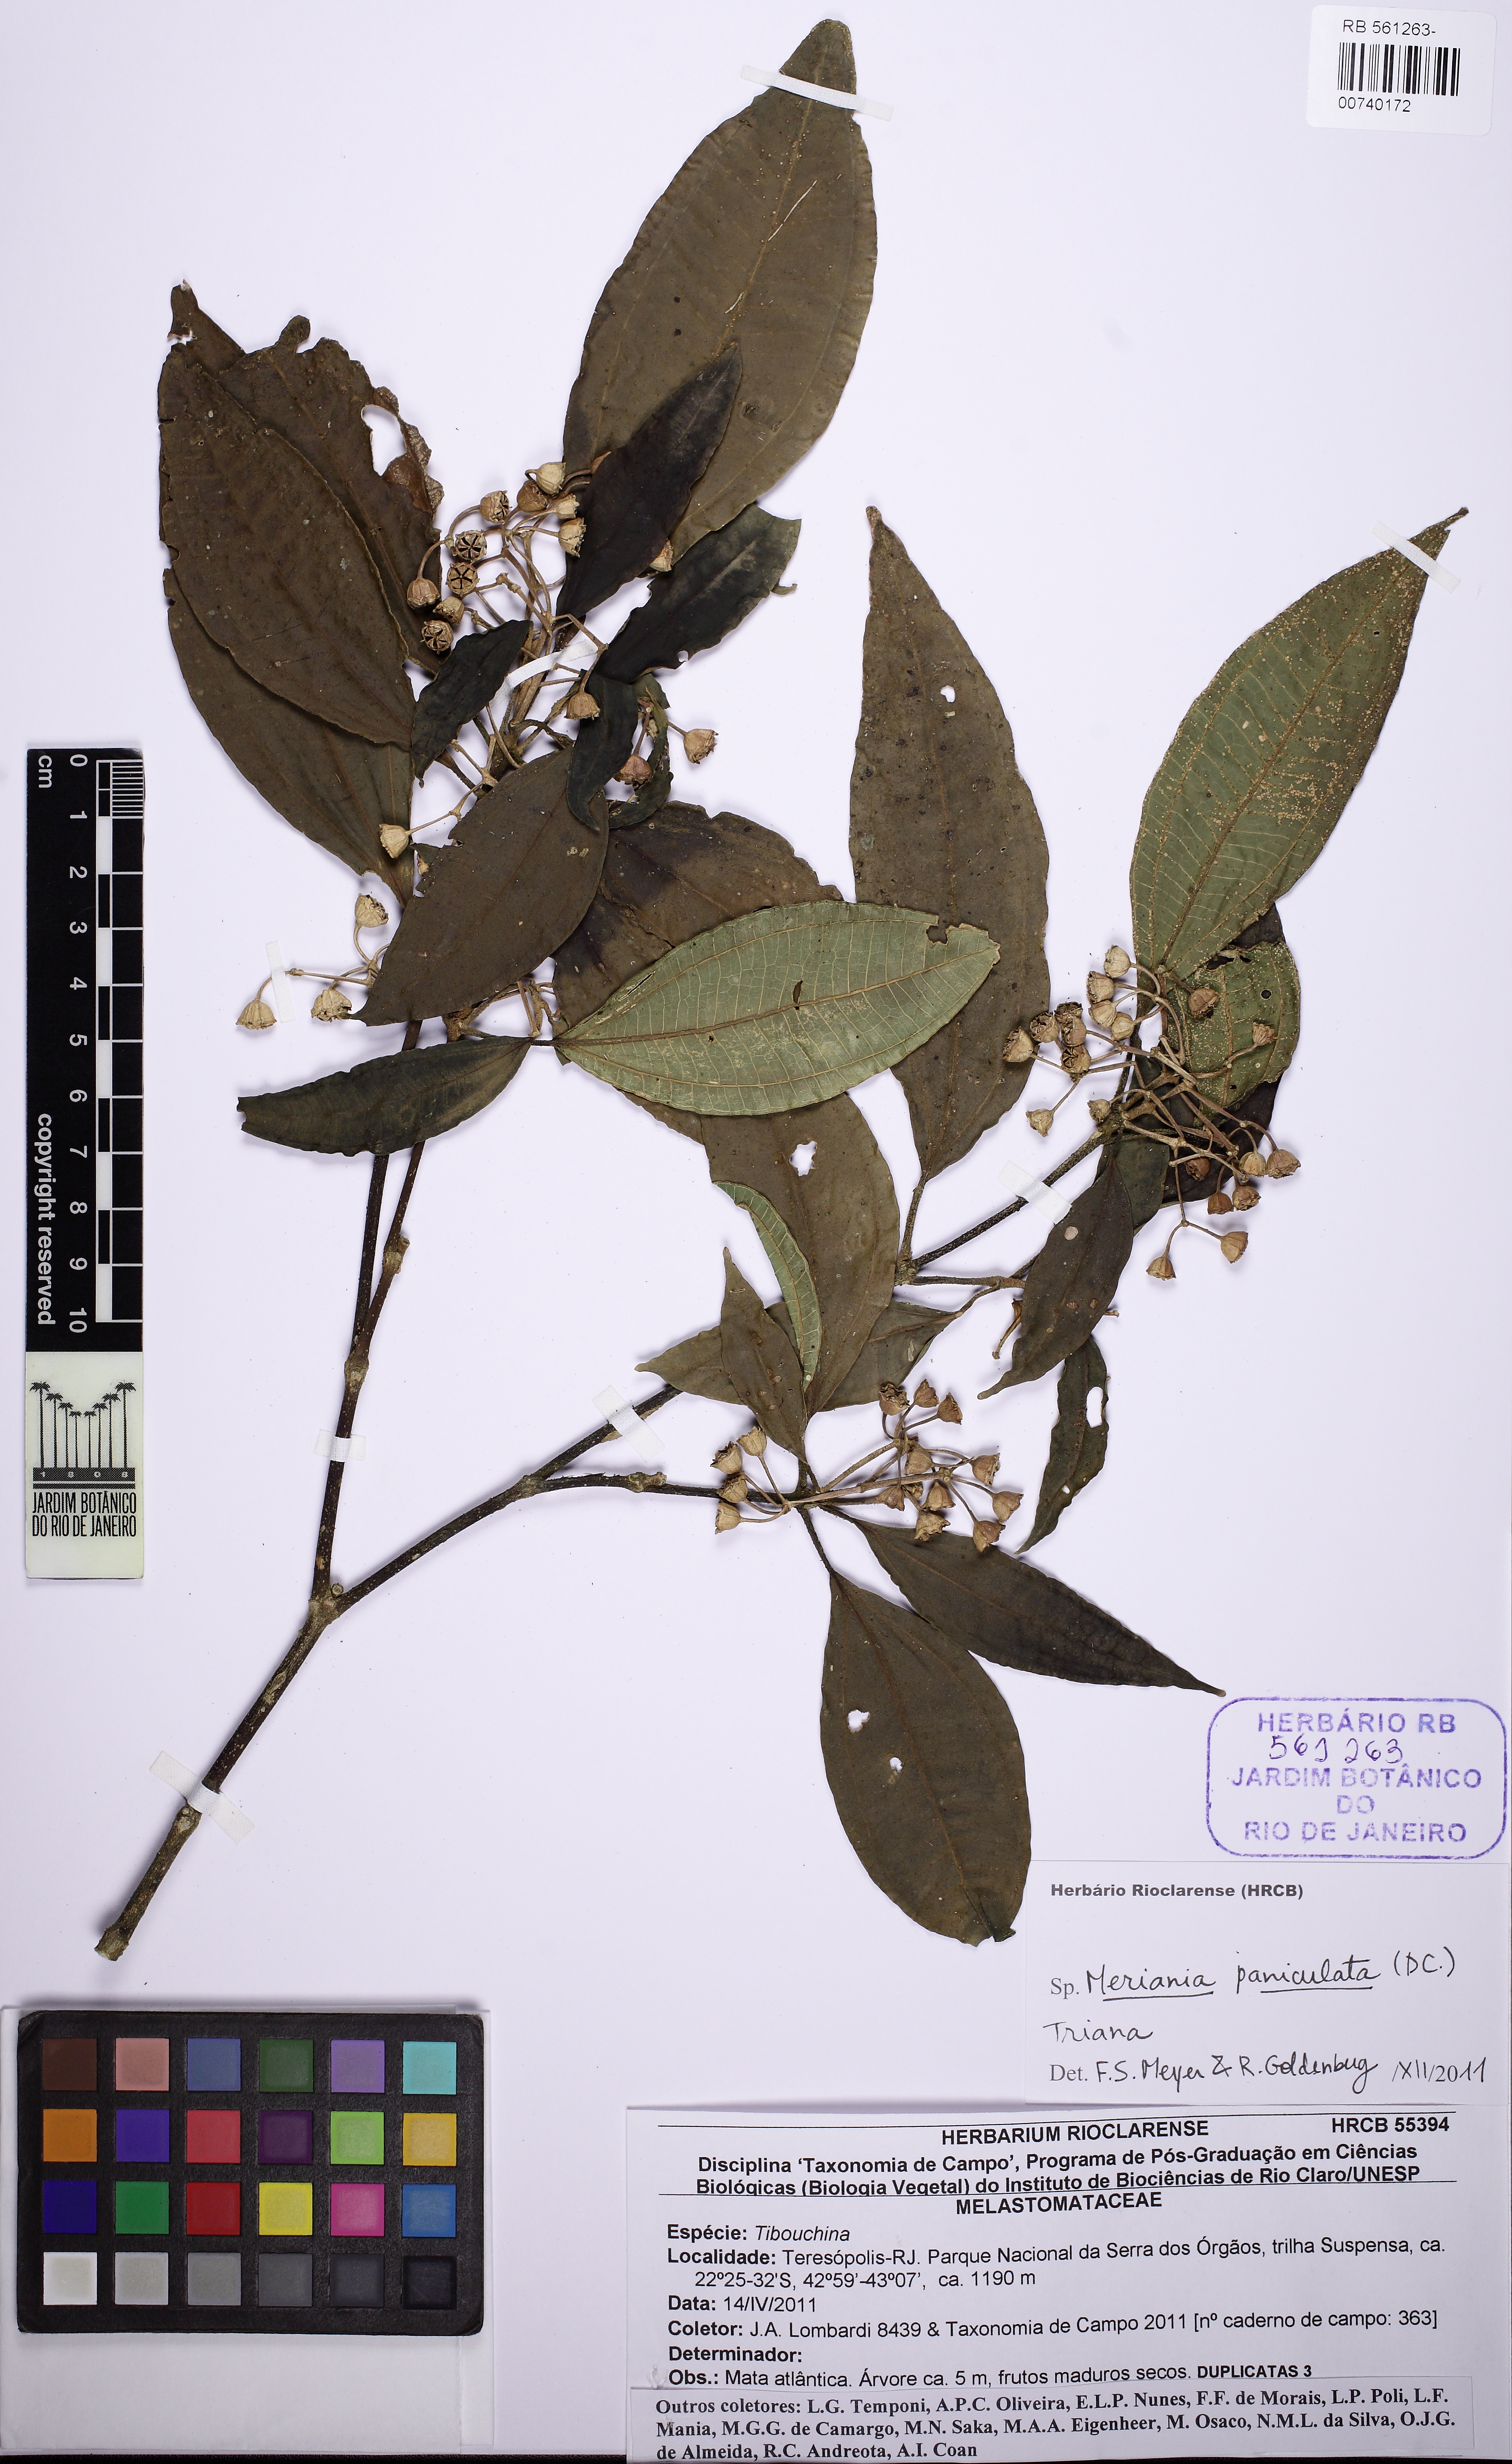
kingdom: Plantae
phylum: Tracheophyta
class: Magnoliopsida
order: Myrtales
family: Melastomataceae
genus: Meriania
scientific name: Meriania paniculata
